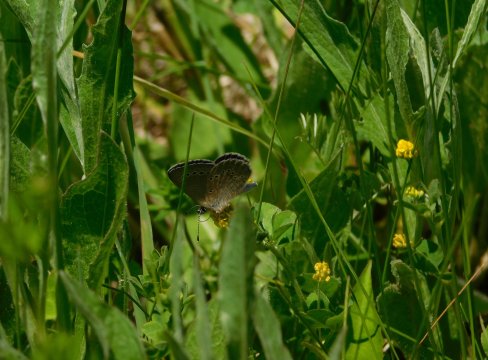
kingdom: Animalia
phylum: Arthropoda
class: Insecta
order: Lepidoptera
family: Lycaenidae
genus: Glaucopsyche
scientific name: Glaucopsyche lygdamus
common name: Silvery Blue
